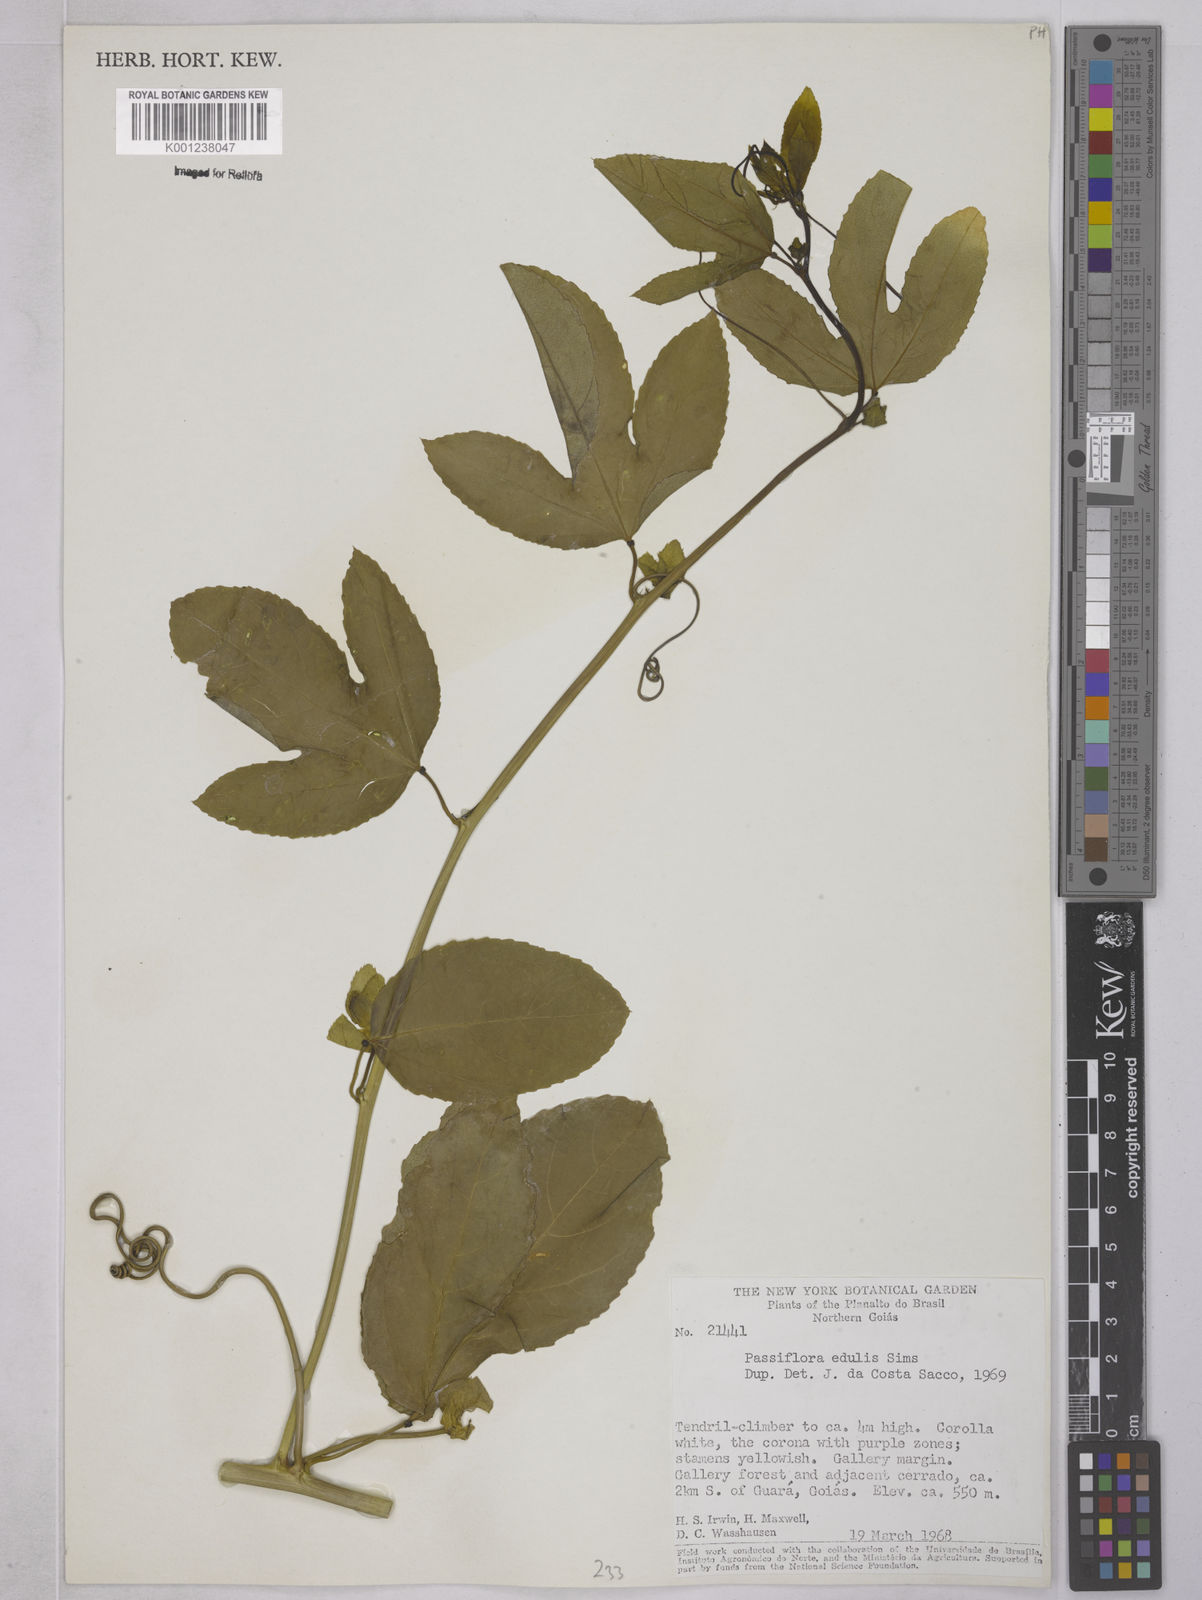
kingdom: Plantae
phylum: Tracheophyta
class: Magnoliopsida
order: Malpighiales
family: Passifloraceae
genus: Passiflora
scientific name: Passiflora edulis
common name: Purple granadilla
